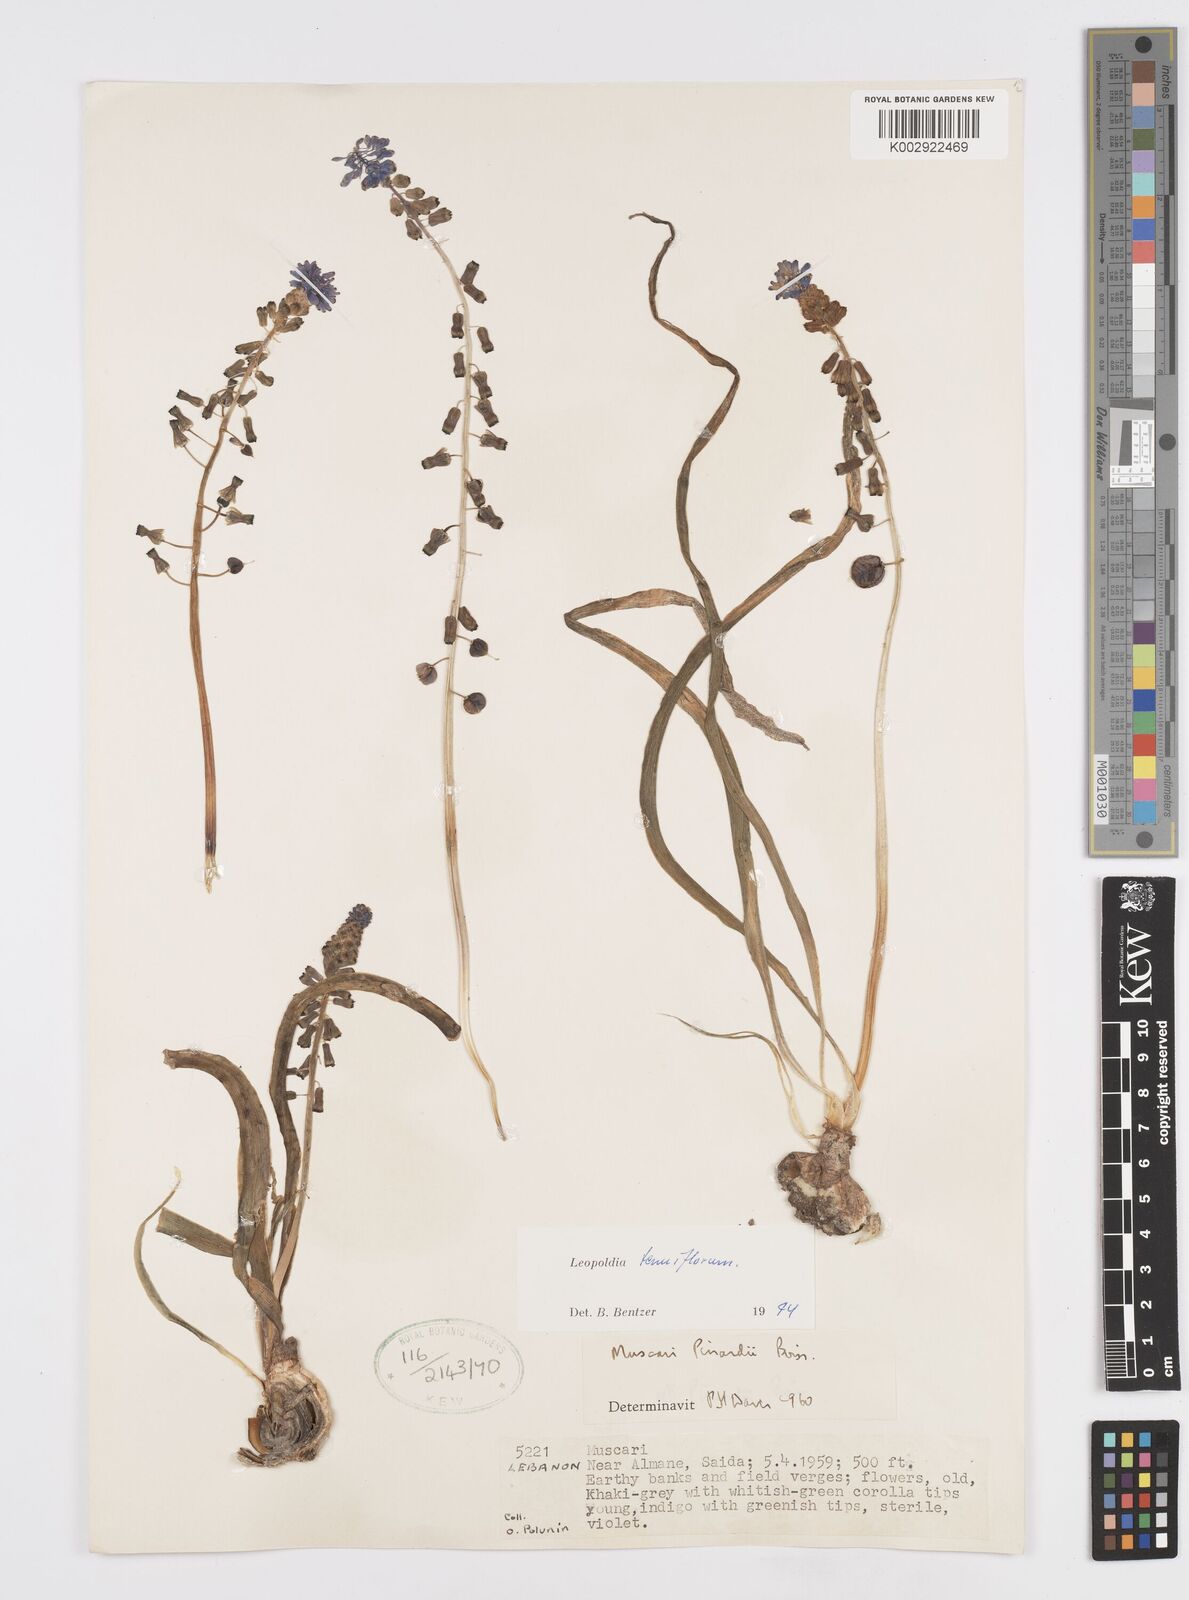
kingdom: Plantae
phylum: Tracheophyta
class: Liliopsida
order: Asparagales
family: Asparagaceae
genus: Muscari
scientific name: Muscari tenuiflorum
